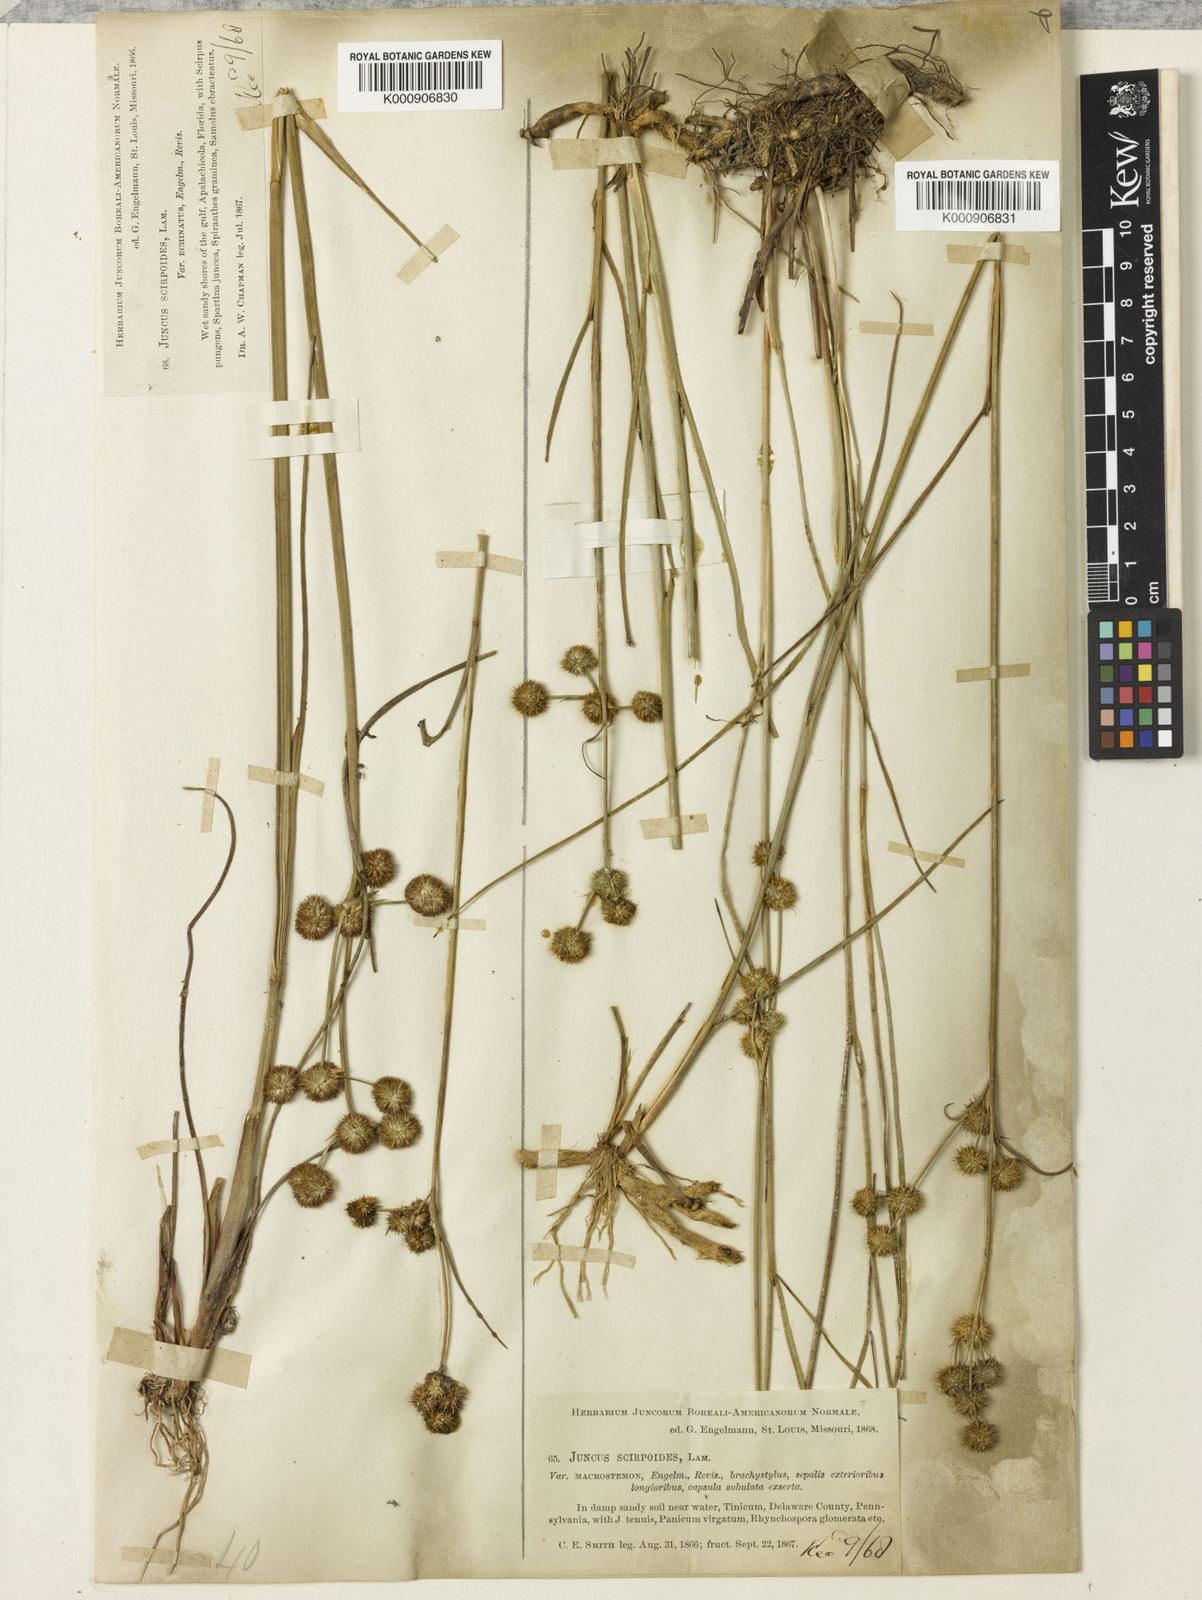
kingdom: Plantae
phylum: Tracheophyta
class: Liliopsida
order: Poales
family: Juncaceae
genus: Juncus
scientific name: Juncus scirpoides
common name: Needlepod rush
